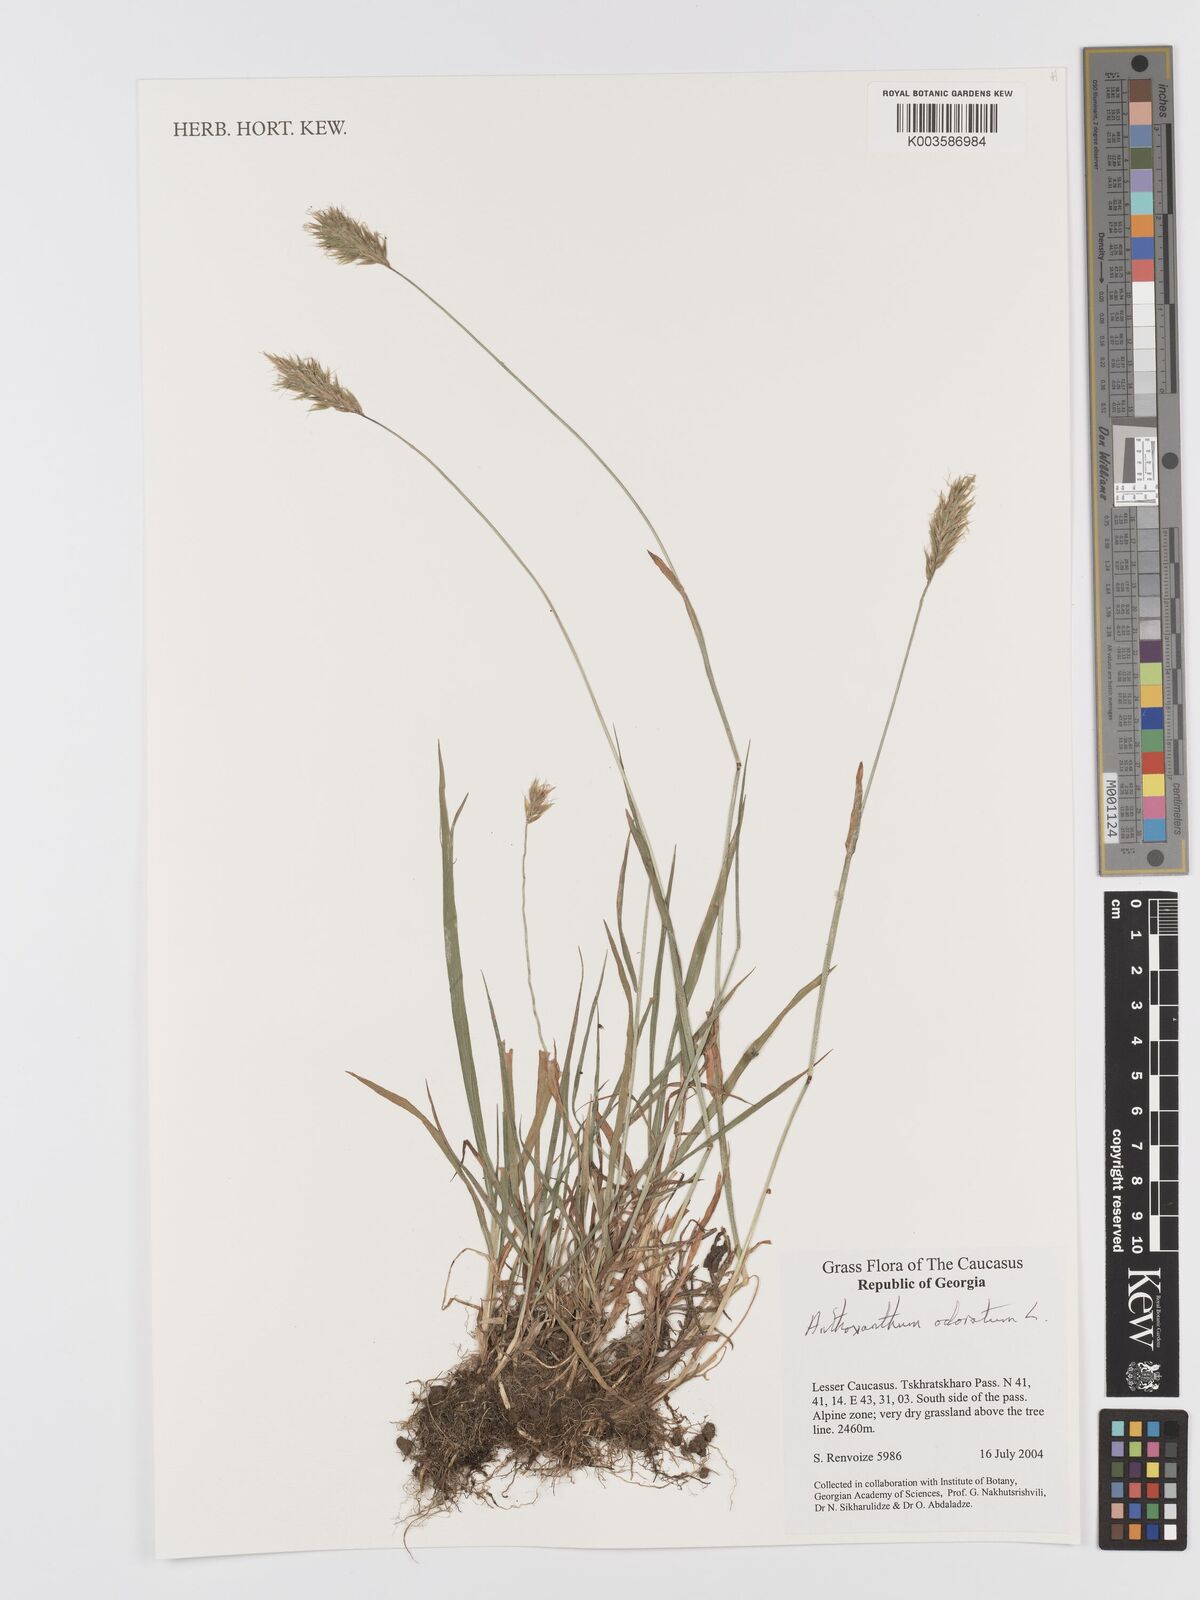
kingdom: Plantae
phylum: Tracheophyta
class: Liliopsida
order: Poales
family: Poaceae
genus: Anthoxanthum
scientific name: Anthoxanthum odoratum
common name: Sweet vernalgrass
